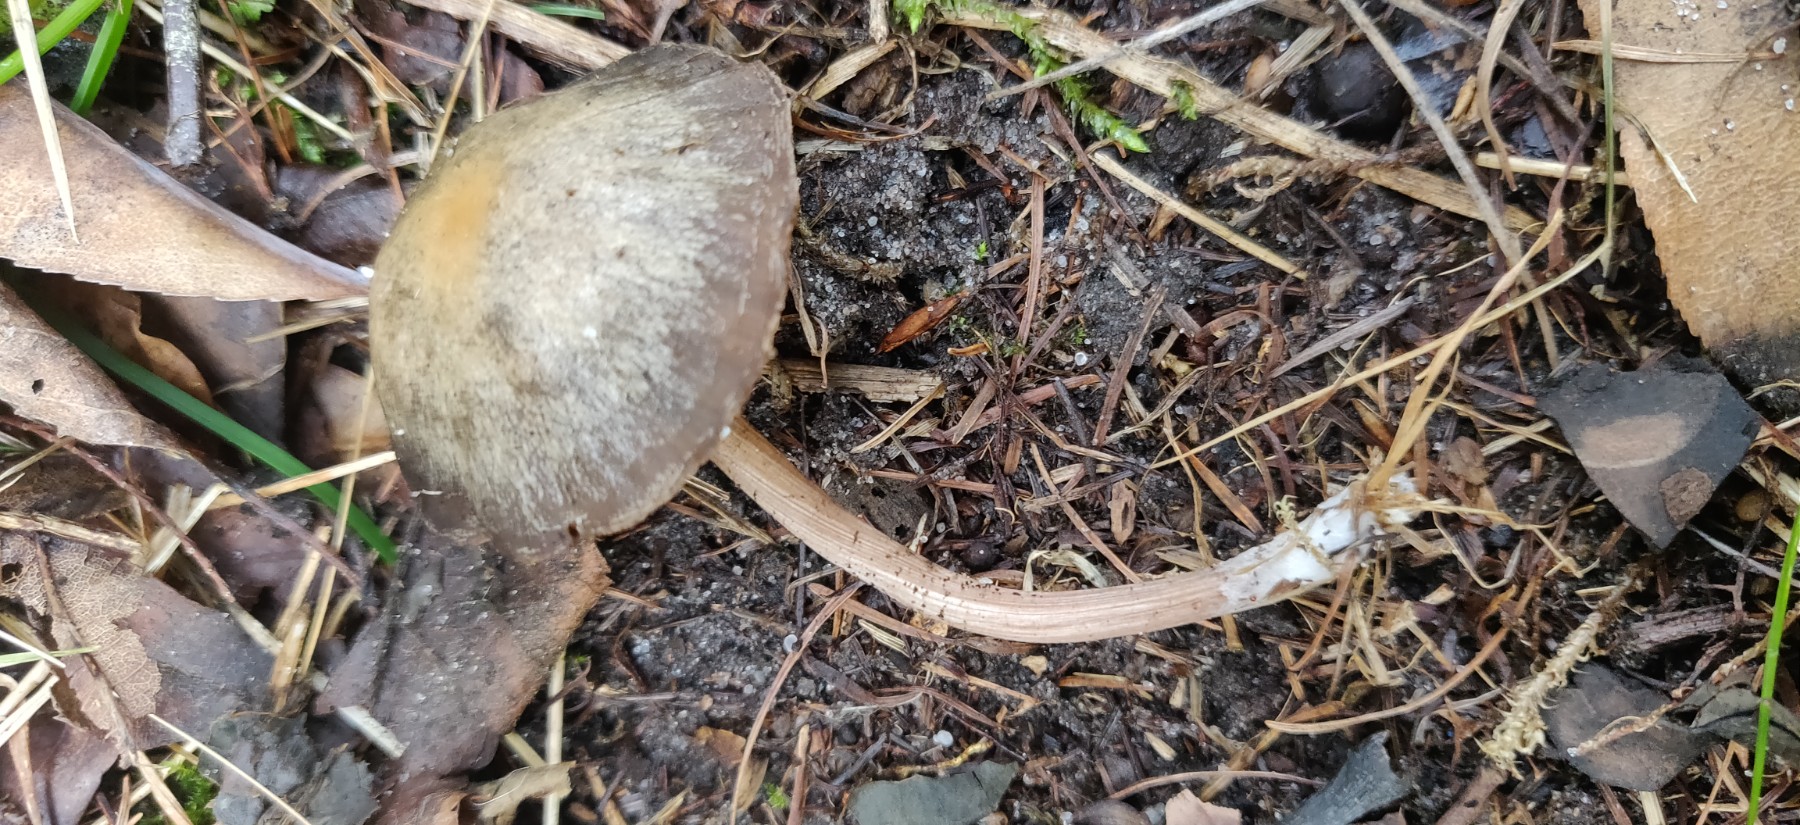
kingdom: Fungi
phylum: Basidiomycota
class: Agaricomycetes
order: Agaricales
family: Bolbitiaceae
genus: Panaeolus
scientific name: Panaeolus
